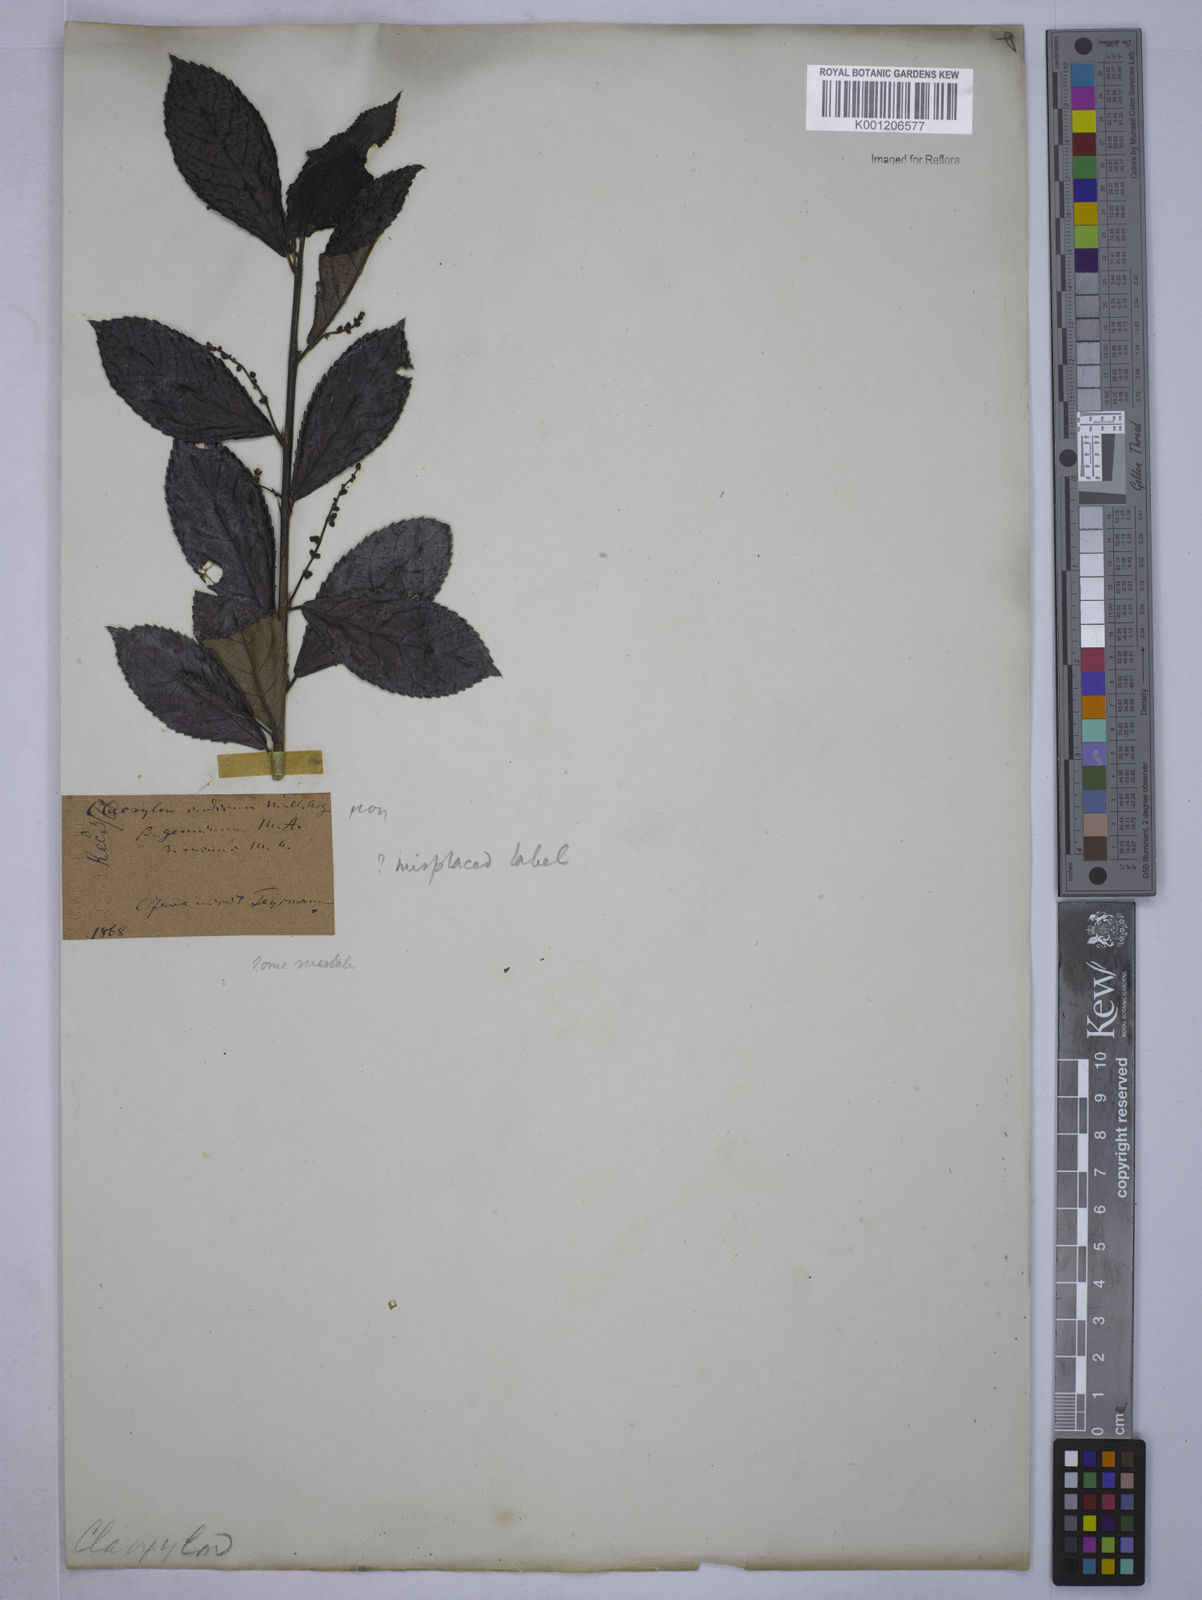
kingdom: Plantae
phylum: Tracheophyta
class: Magnoliopsida
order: Malpighiales
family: Euphorbiaceae
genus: Cleidion
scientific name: Cleidion tricoccum
